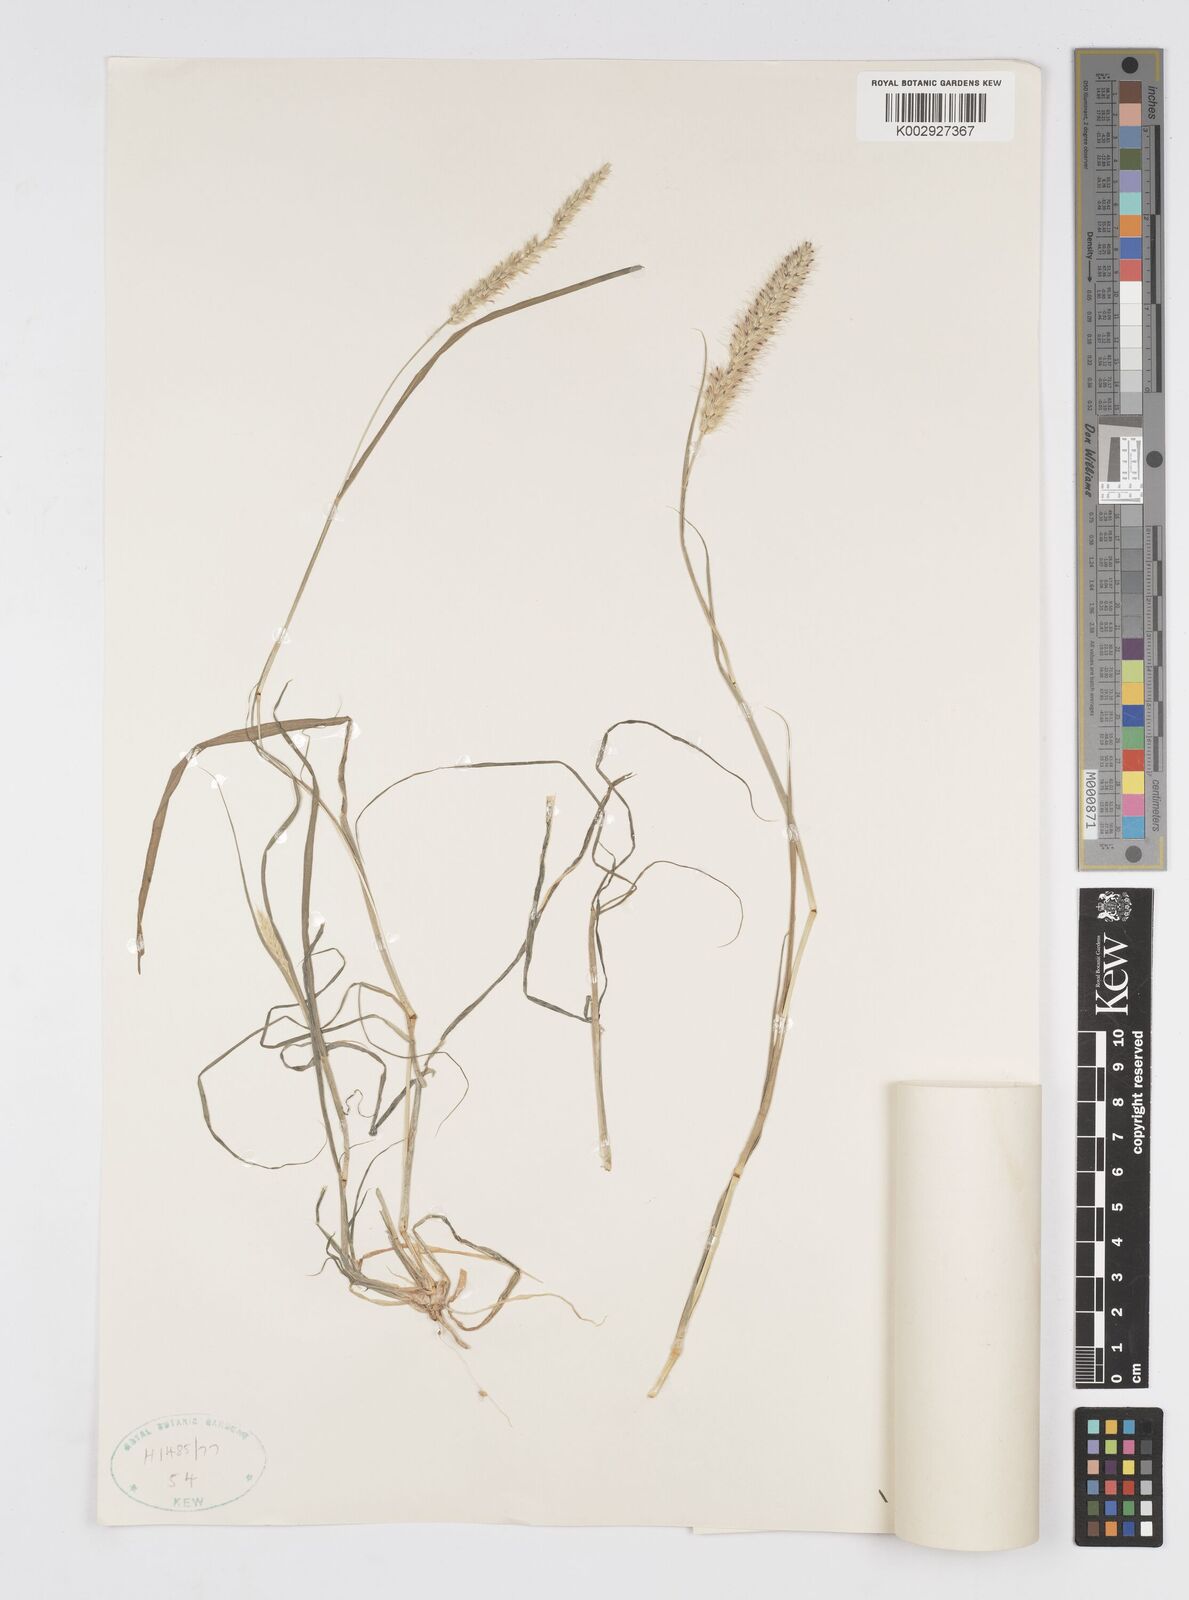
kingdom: Plantae
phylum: Tracheophyta
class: Liliopsida
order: Poales
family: Poaceae
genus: Cenchrus
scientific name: Cenchrus ciliaris
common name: Buffelgrass
